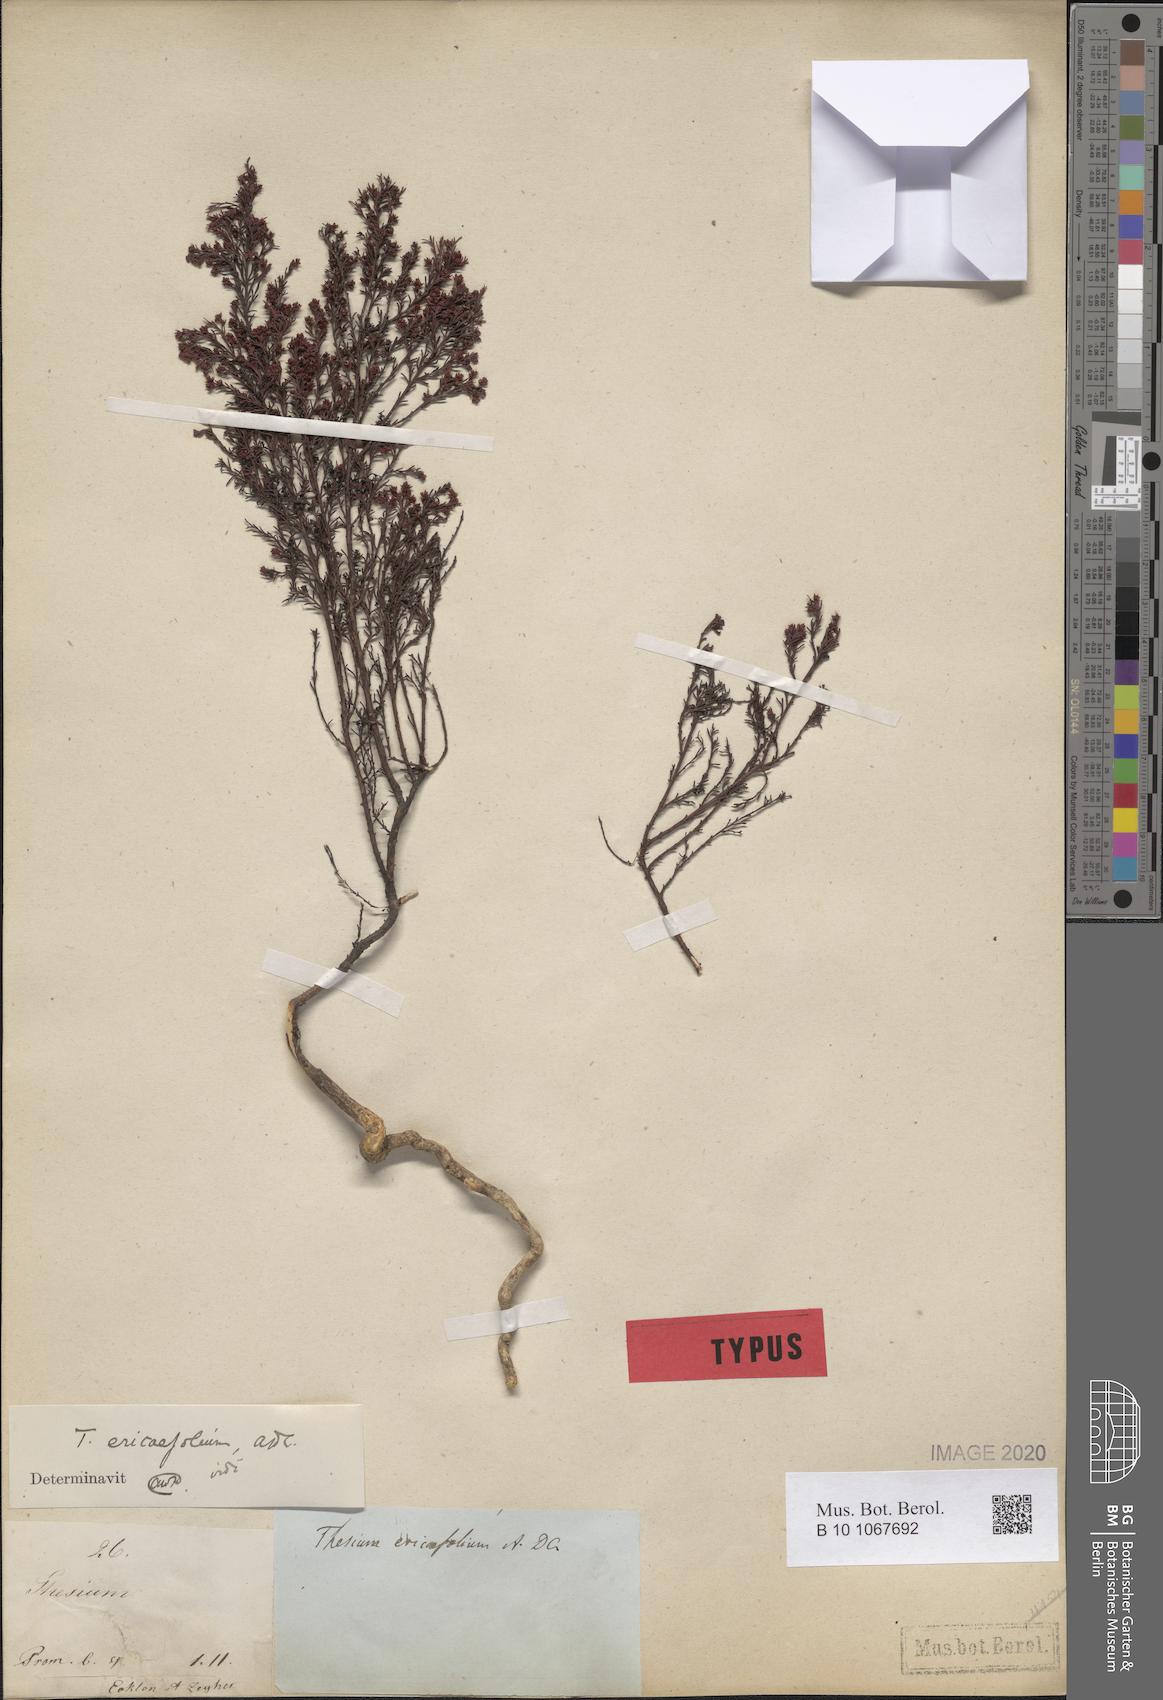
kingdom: Plantae
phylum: Tracheophyta
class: Magnoliopsida
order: Santalales
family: Thesiaceae
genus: Thesium
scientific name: Thesium ericaefolium
